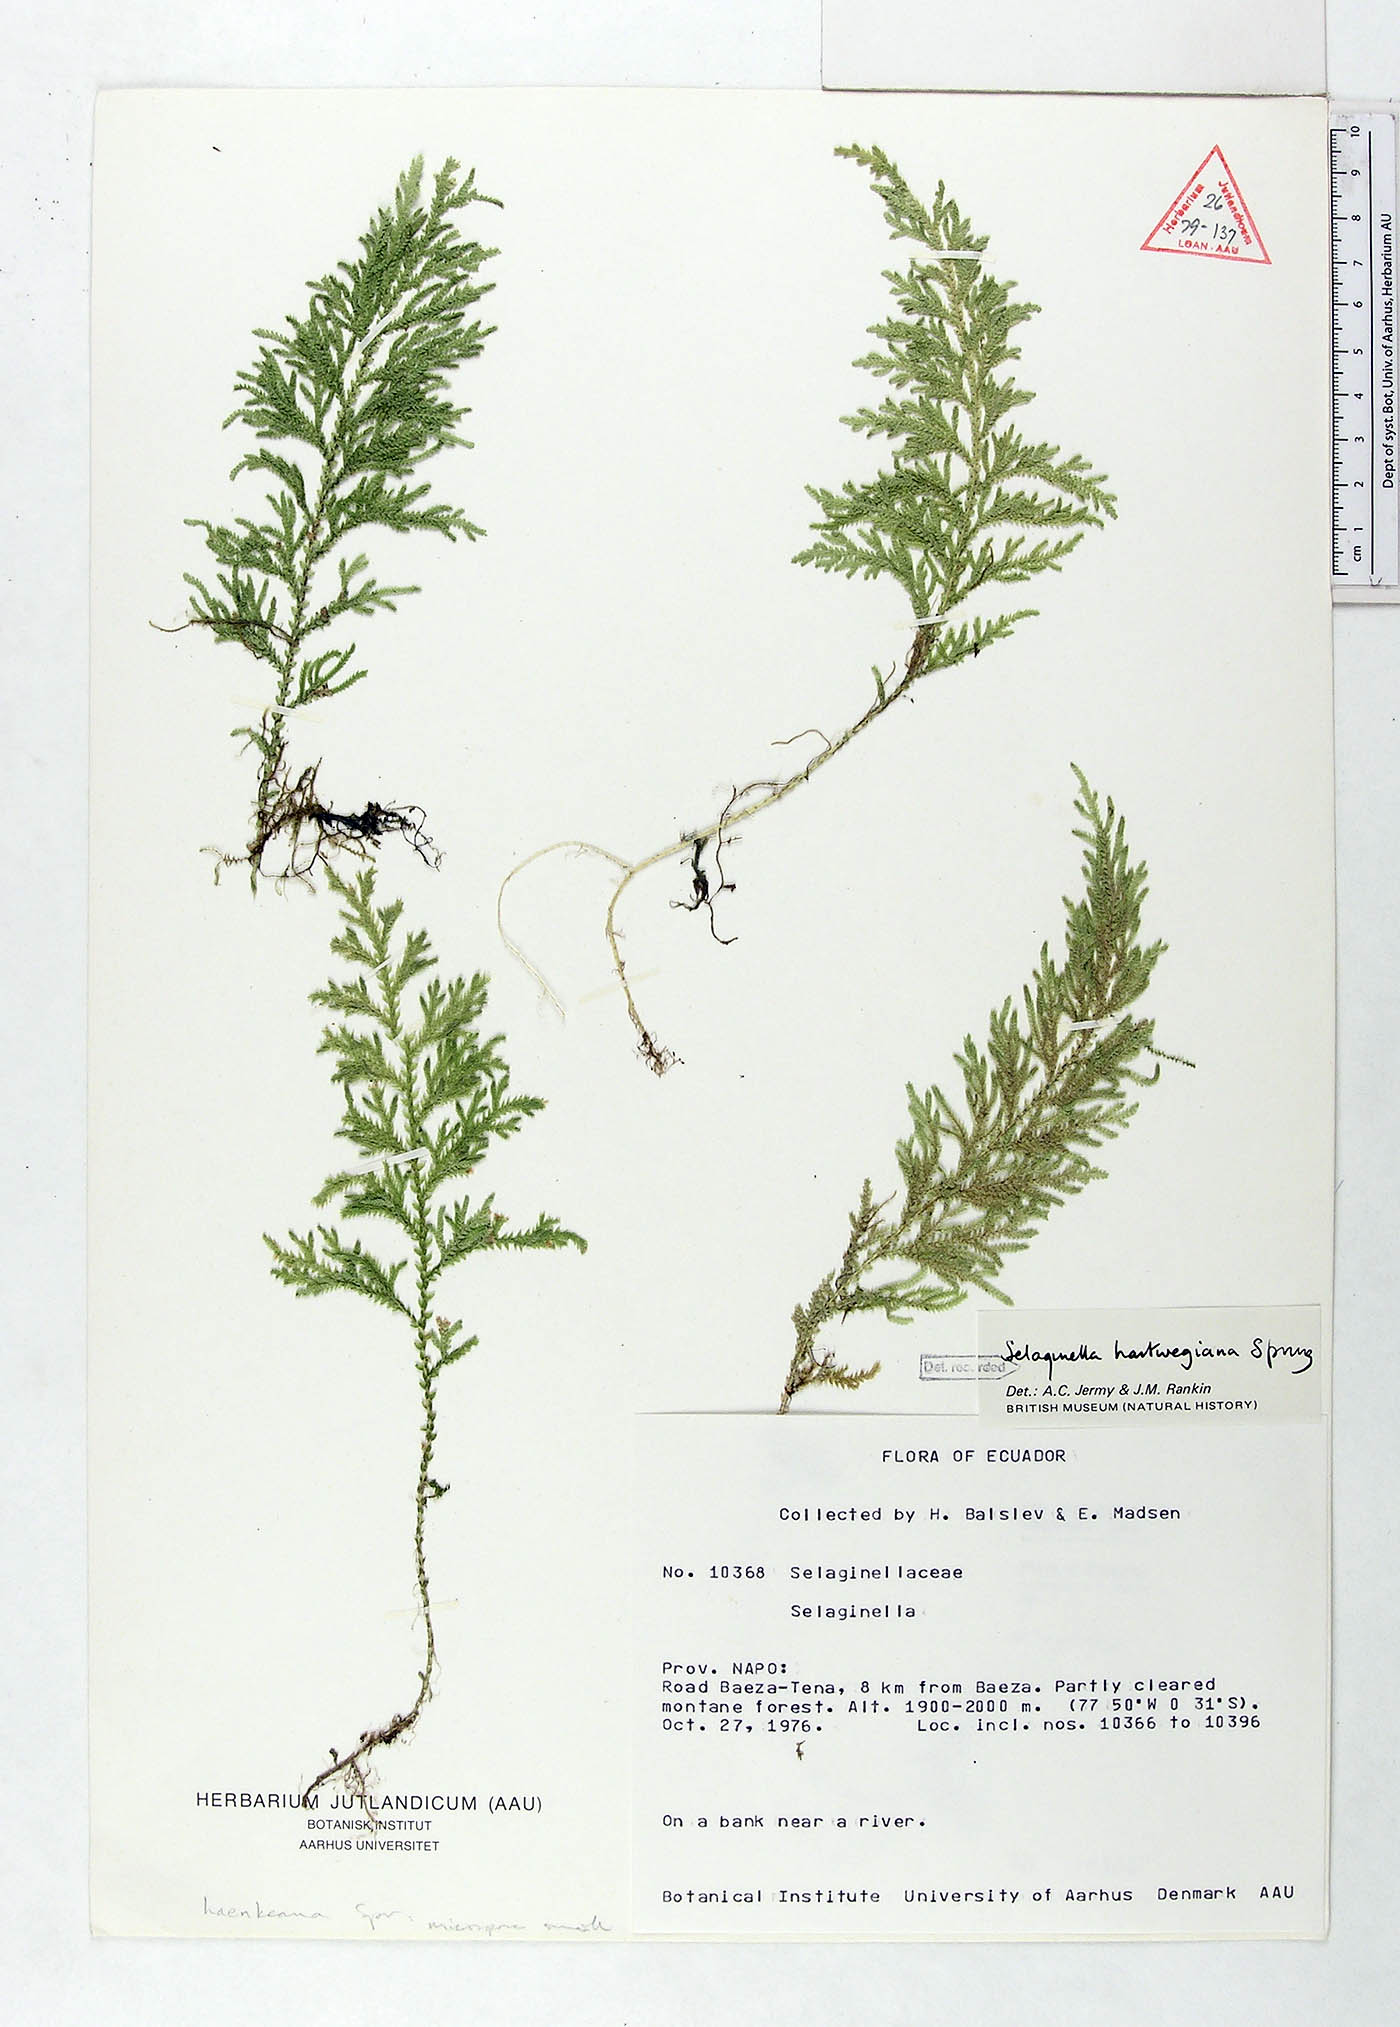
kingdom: Plantae
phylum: Tracheophyta
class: Lycopodiopsida
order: Selaginellales
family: Selaginellaceae
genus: Selaginella
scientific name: Selaginella hartwegiana
